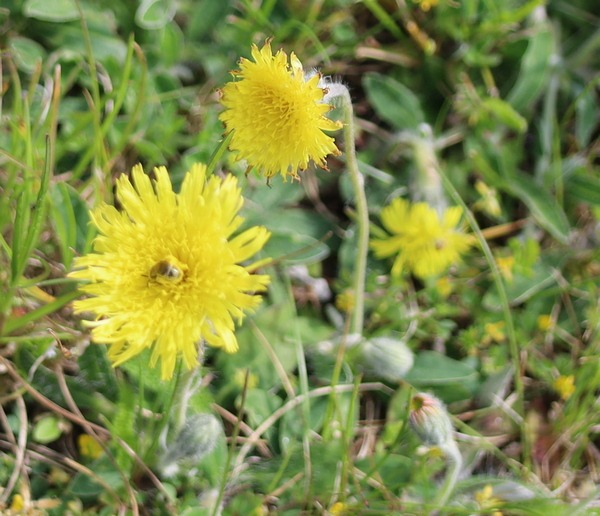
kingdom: Plantae
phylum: Tracheophyta
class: Magnoliopsida
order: Asterales
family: Asteraceae
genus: Pilosella
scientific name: Pilosella officinarum
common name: Håret høgeurt
